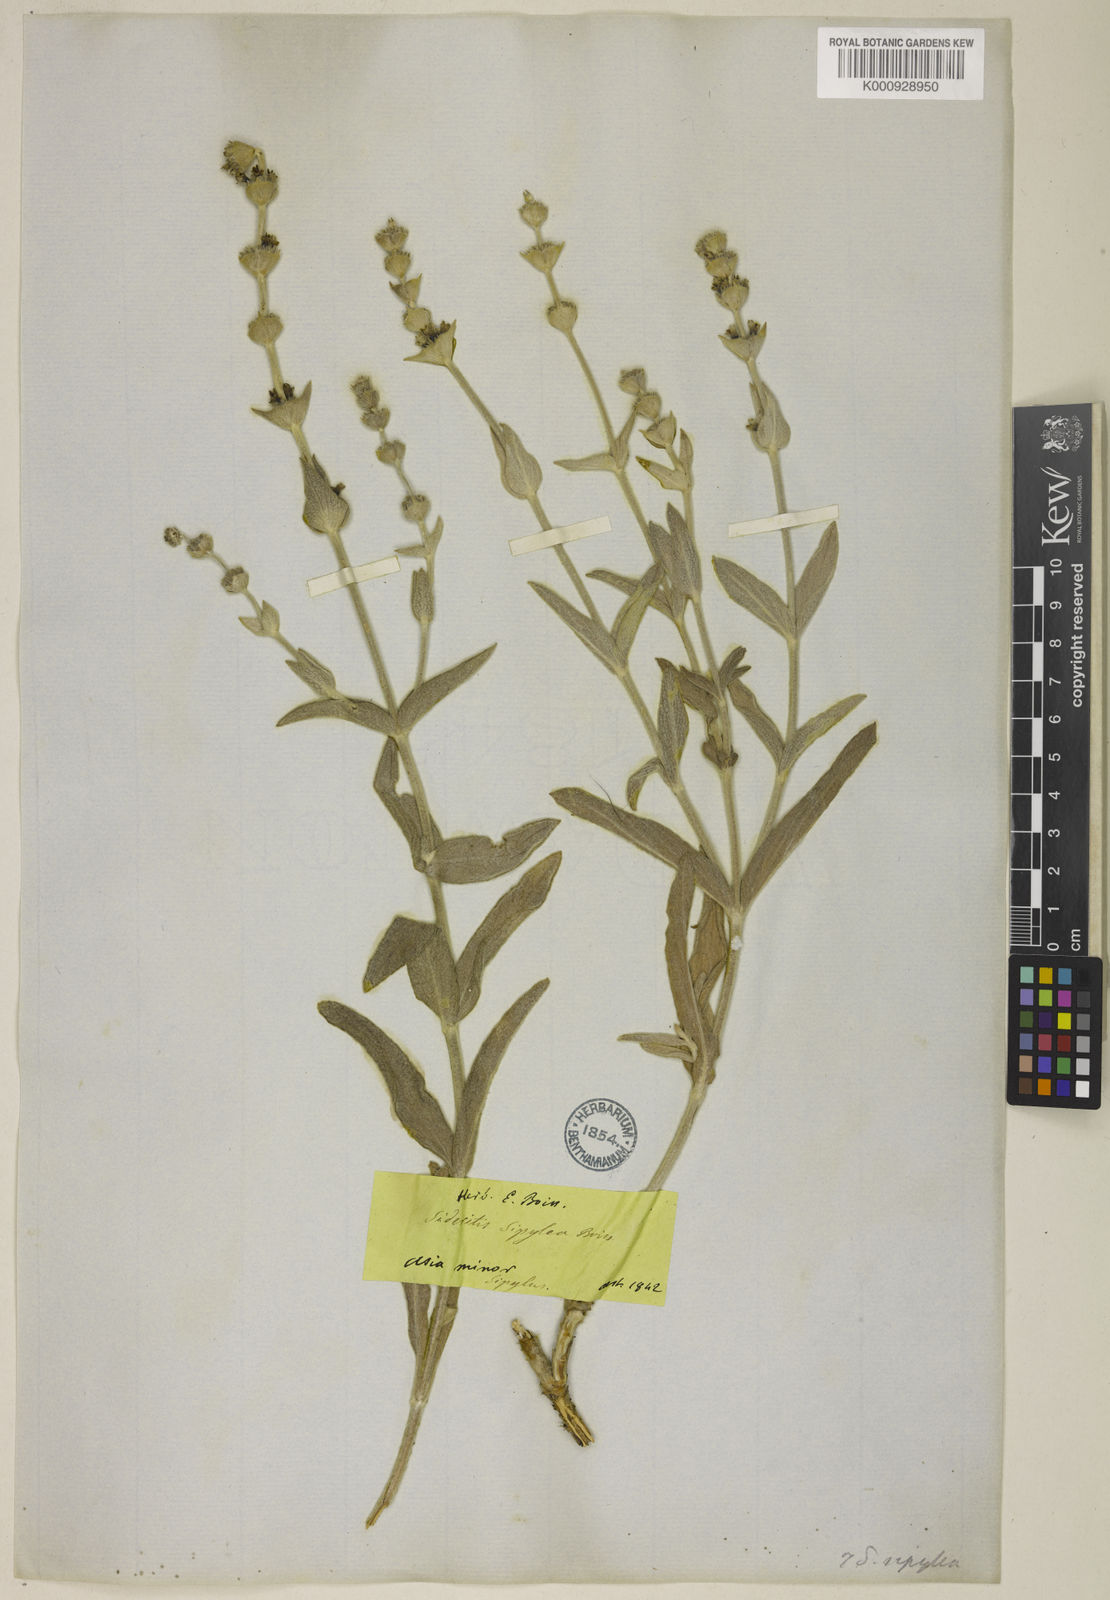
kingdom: Plantae
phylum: Tracheophyta
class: Magnoliopsida
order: Lamiales
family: Lamiaceae
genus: Sideritis
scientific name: Sideritis sipylea
